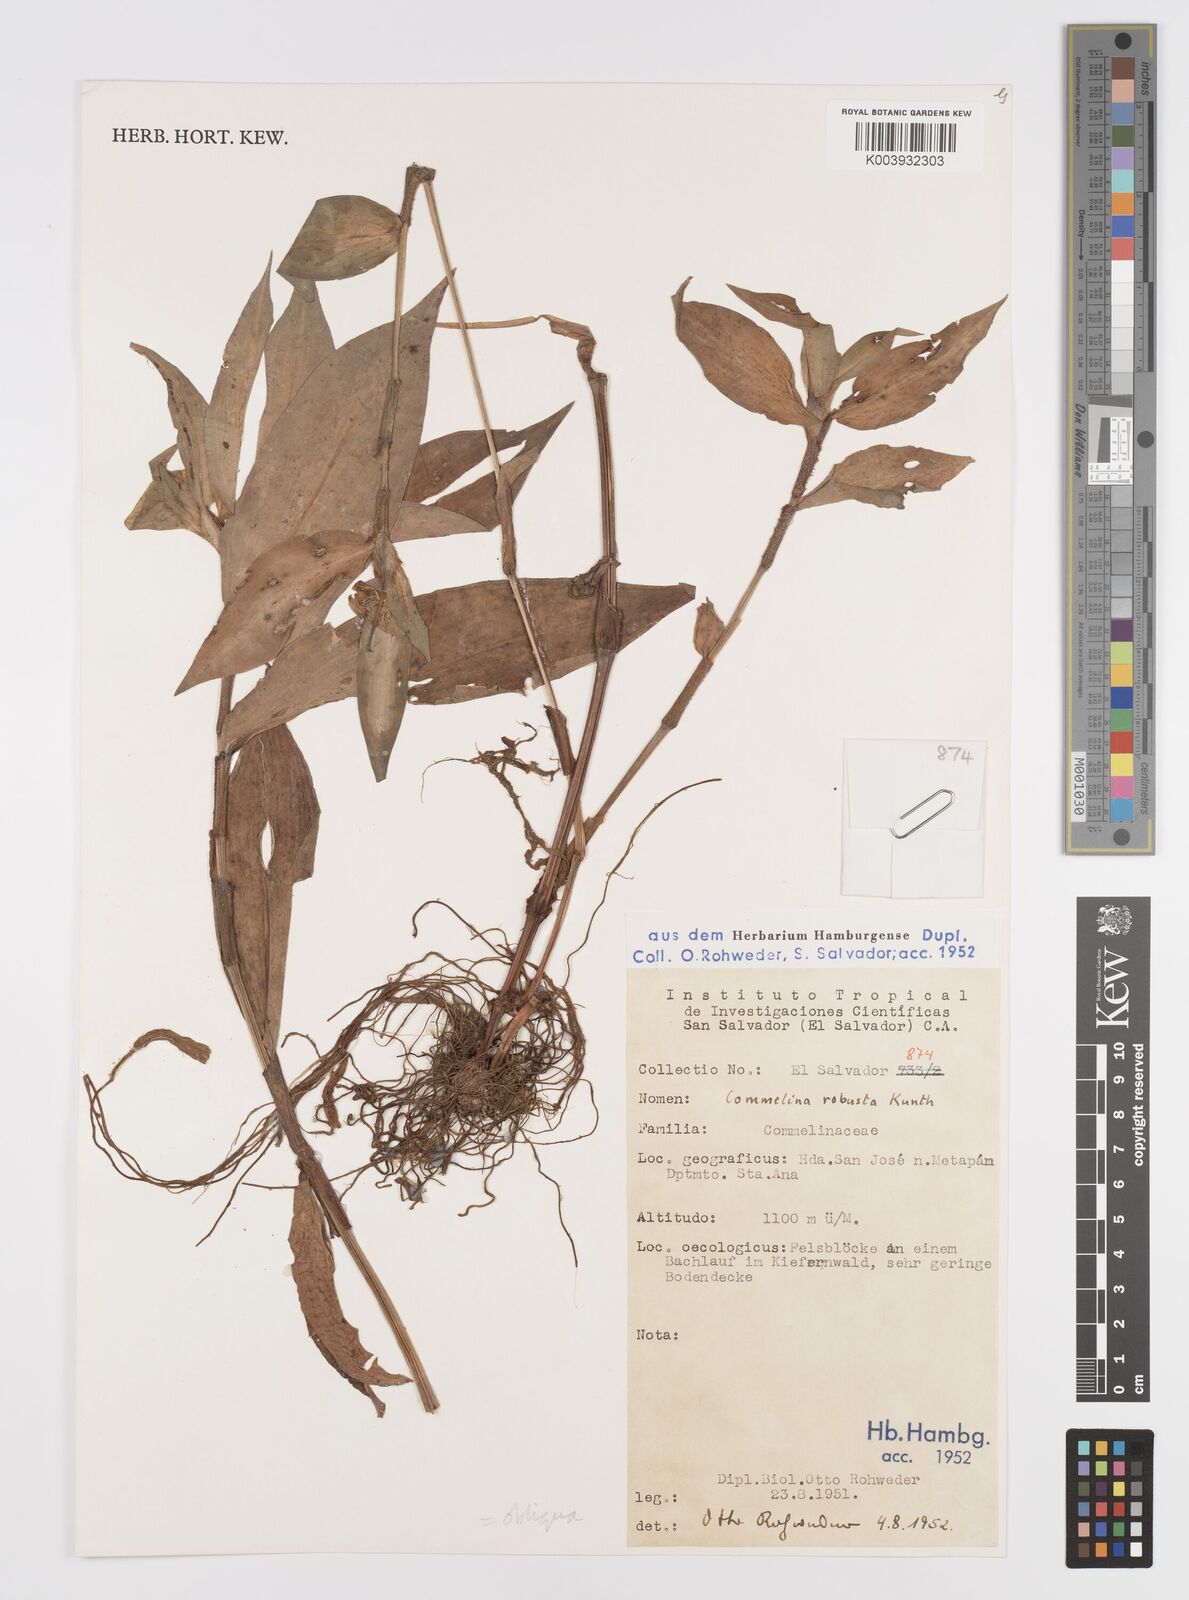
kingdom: Plantae
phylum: Tracheophyta
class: Liliopsida
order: Commelinales
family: Commelinaceae
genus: Commelina
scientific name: Commelina obliqua
